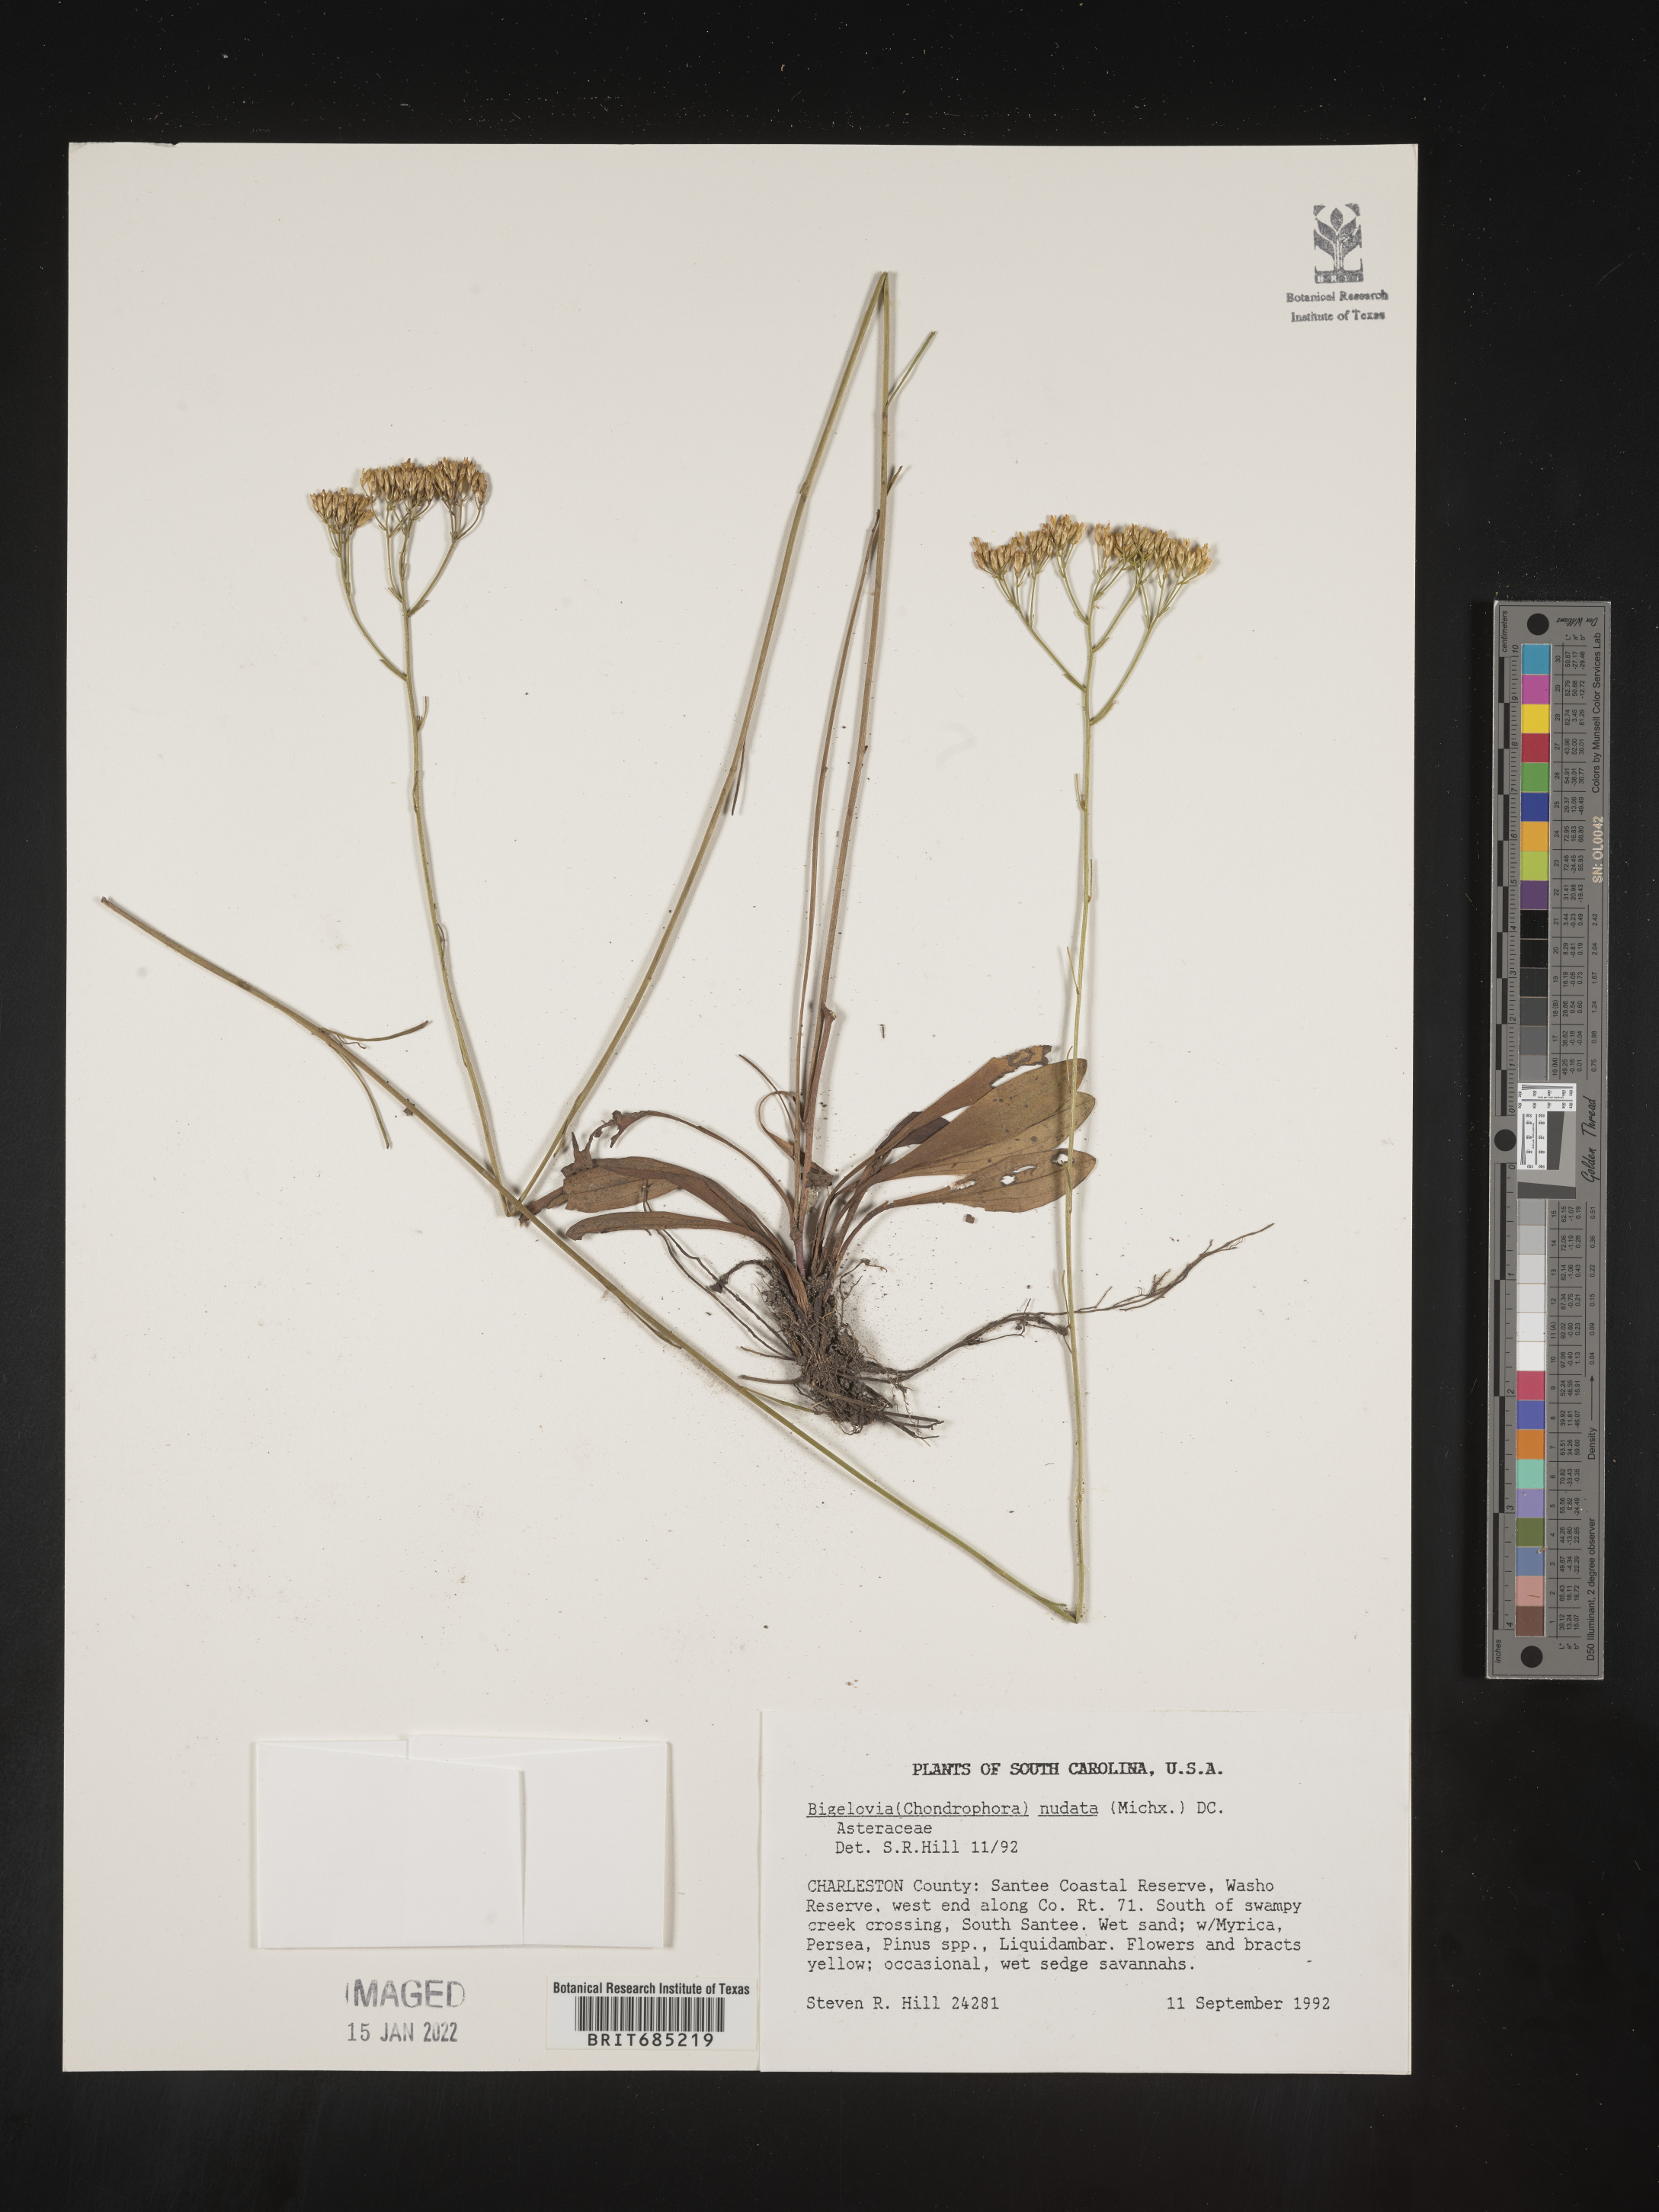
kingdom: Plantae
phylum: Tracheophyta
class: Magnoliopsida
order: Asterales
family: Asteraceae
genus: Bigelowia
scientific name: Bigelowia nudata
